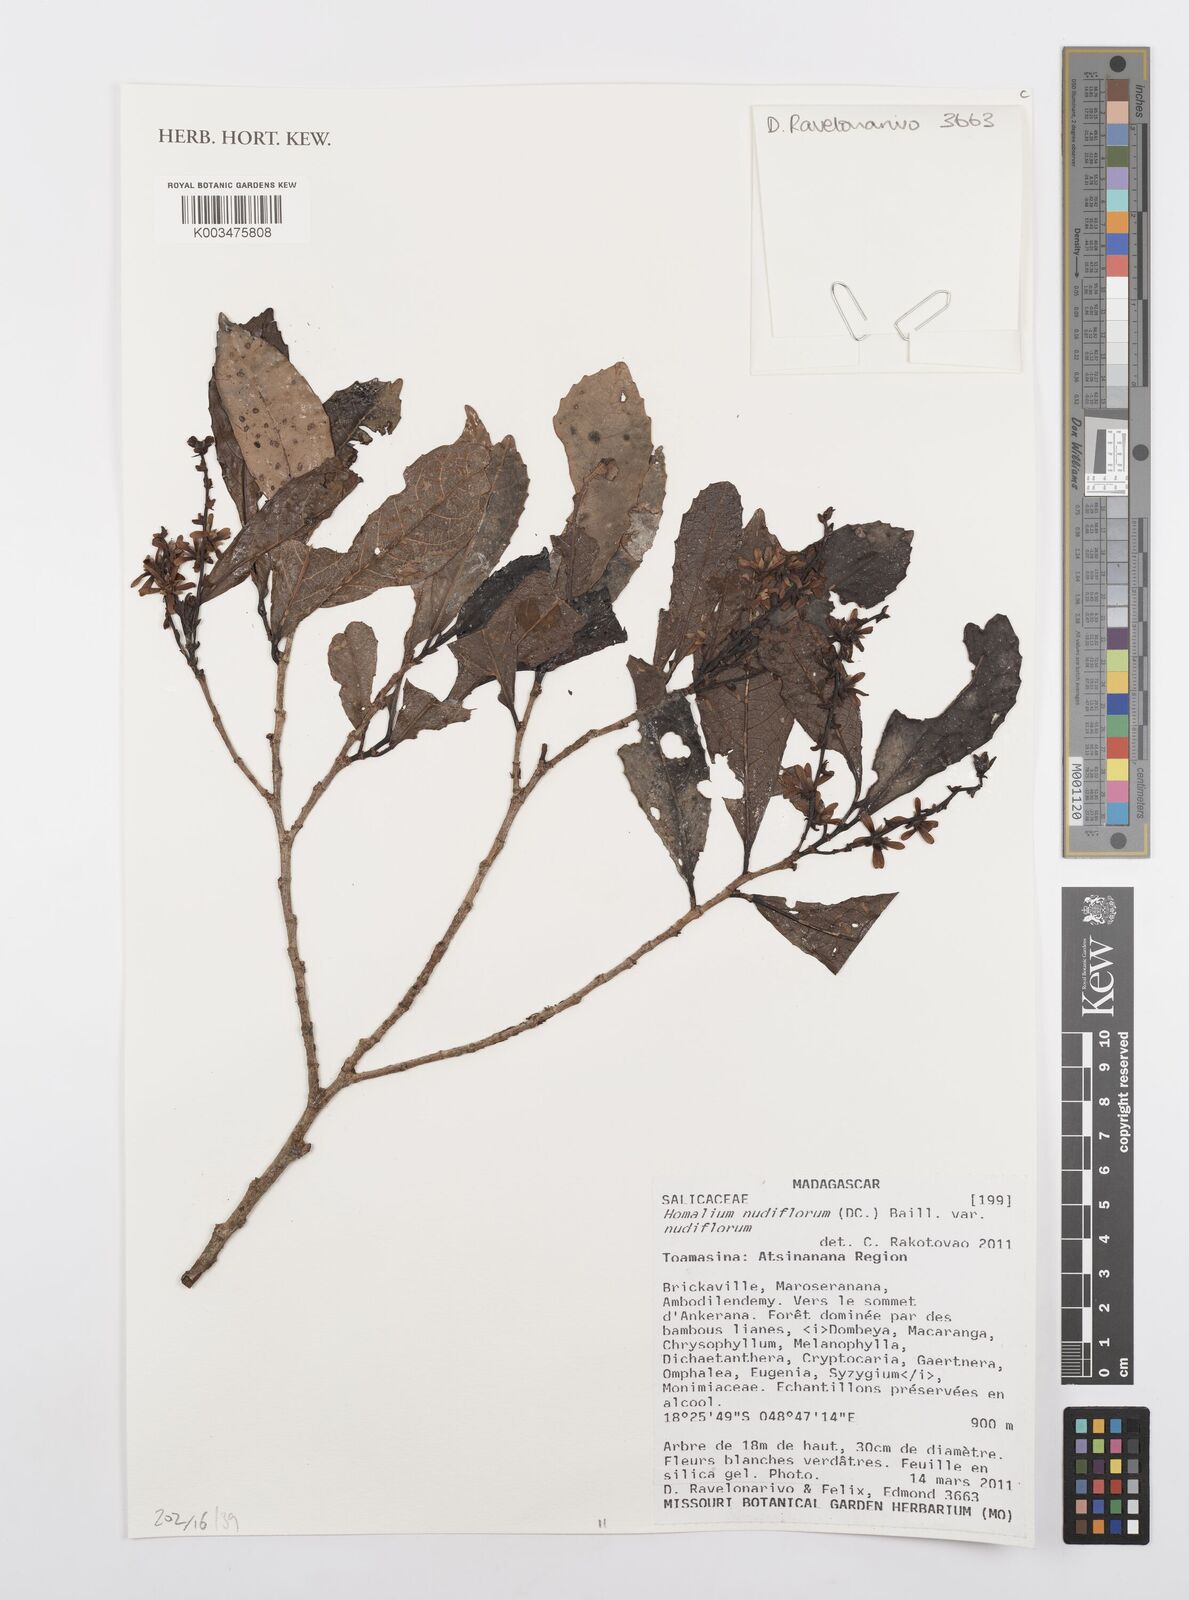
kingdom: Plantae
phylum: Tracheophyta
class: Magnoliopsida
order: Malpighiales
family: Salicaceae
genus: Homalium
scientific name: Homalium nudiflorum
